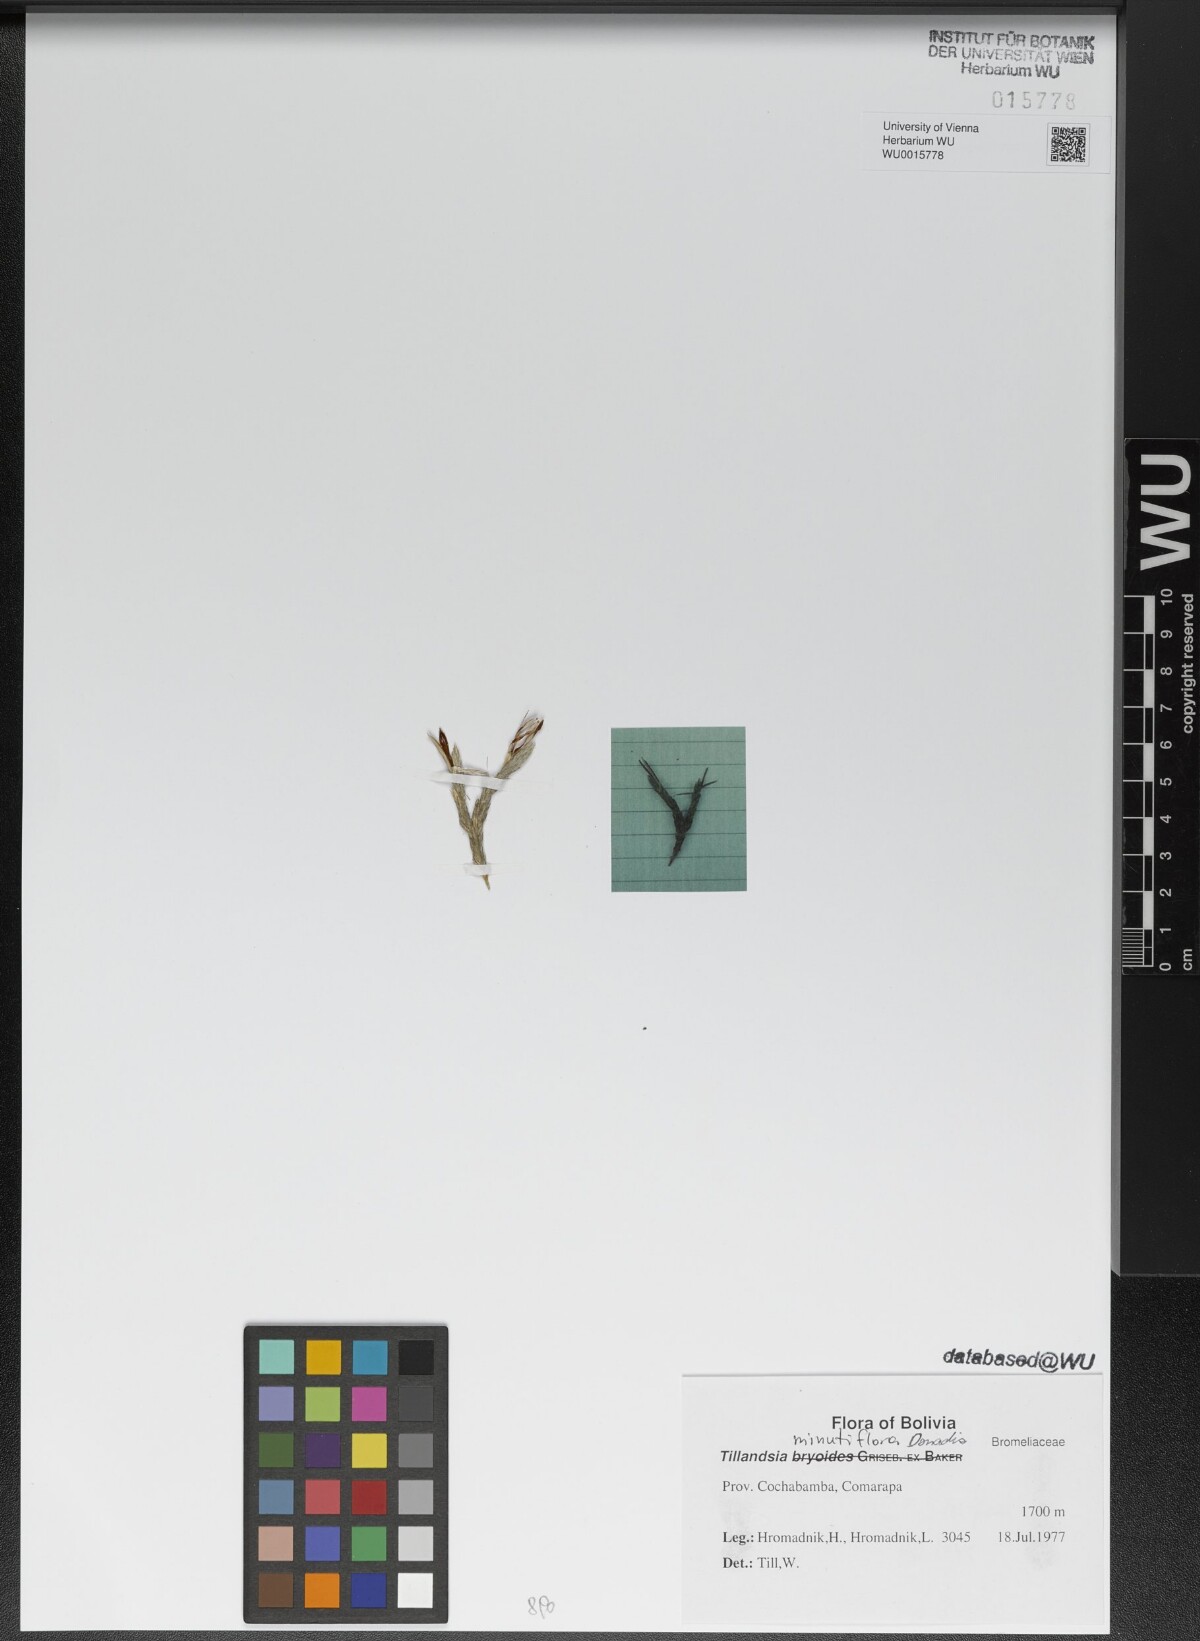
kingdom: Plantae
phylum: Tracheophyta
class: Liliopsida
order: Poales
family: Bromeliaceae
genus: Tillandsia
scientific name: Tillandsia minutiflora
